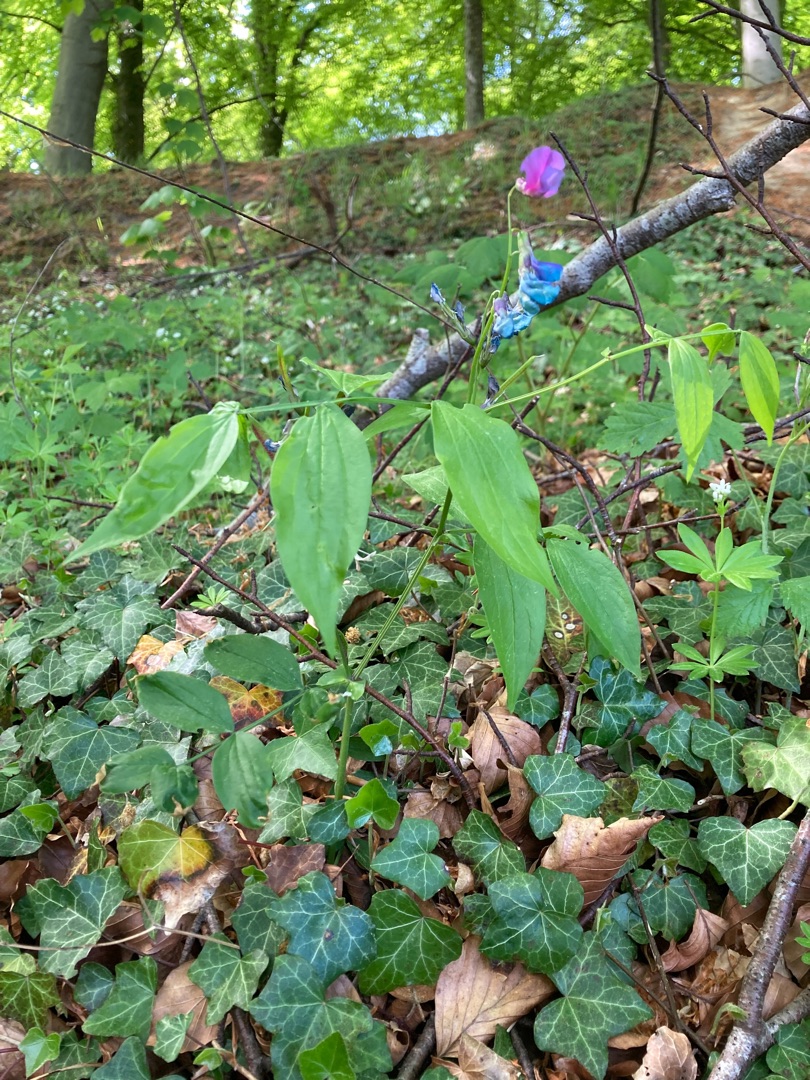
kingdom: Plantae
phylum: Tracheophyta
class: Magnoliopsida
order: Fabales
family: Fabaceae
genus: Lathyrus
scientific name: Lathyrus vernus
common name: Vår-fladbælg
